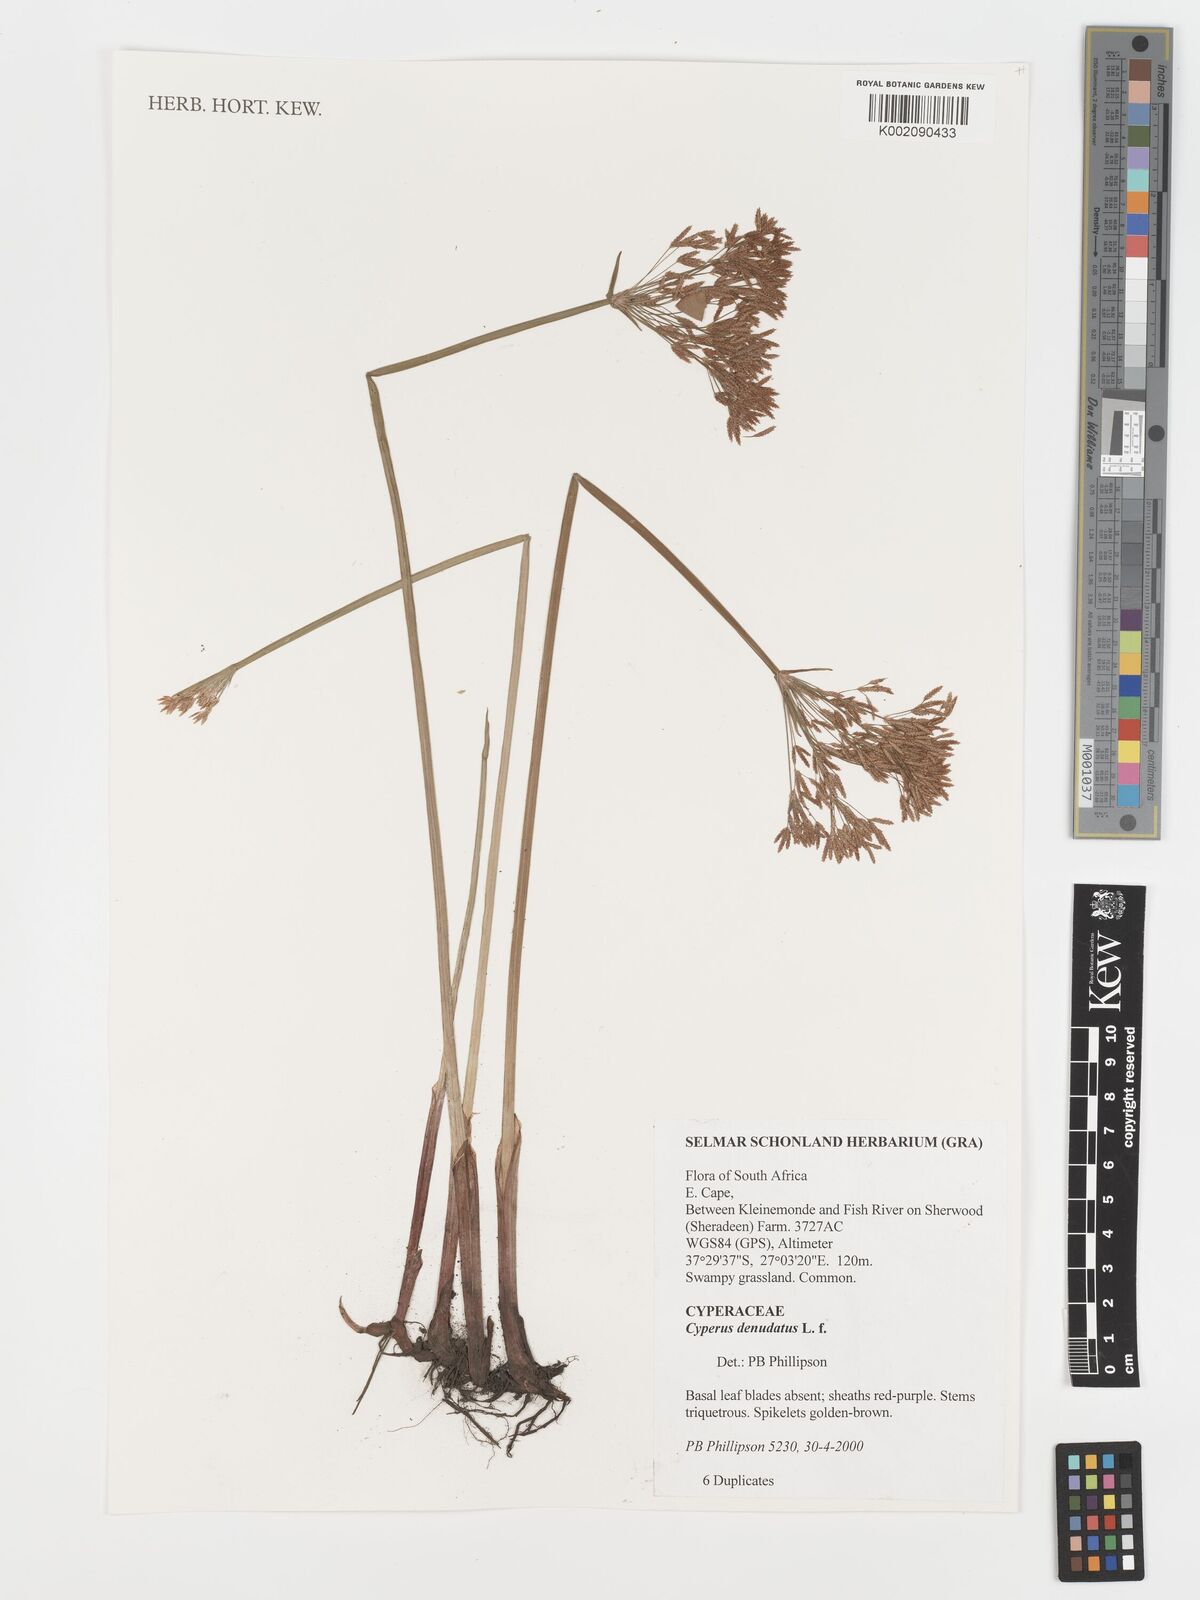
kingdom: Plantae
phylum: Tracheophyta
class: Liliopsida
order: Poales
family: Cyperaceae
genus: Cyperus
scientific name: Cyperus denudatus
